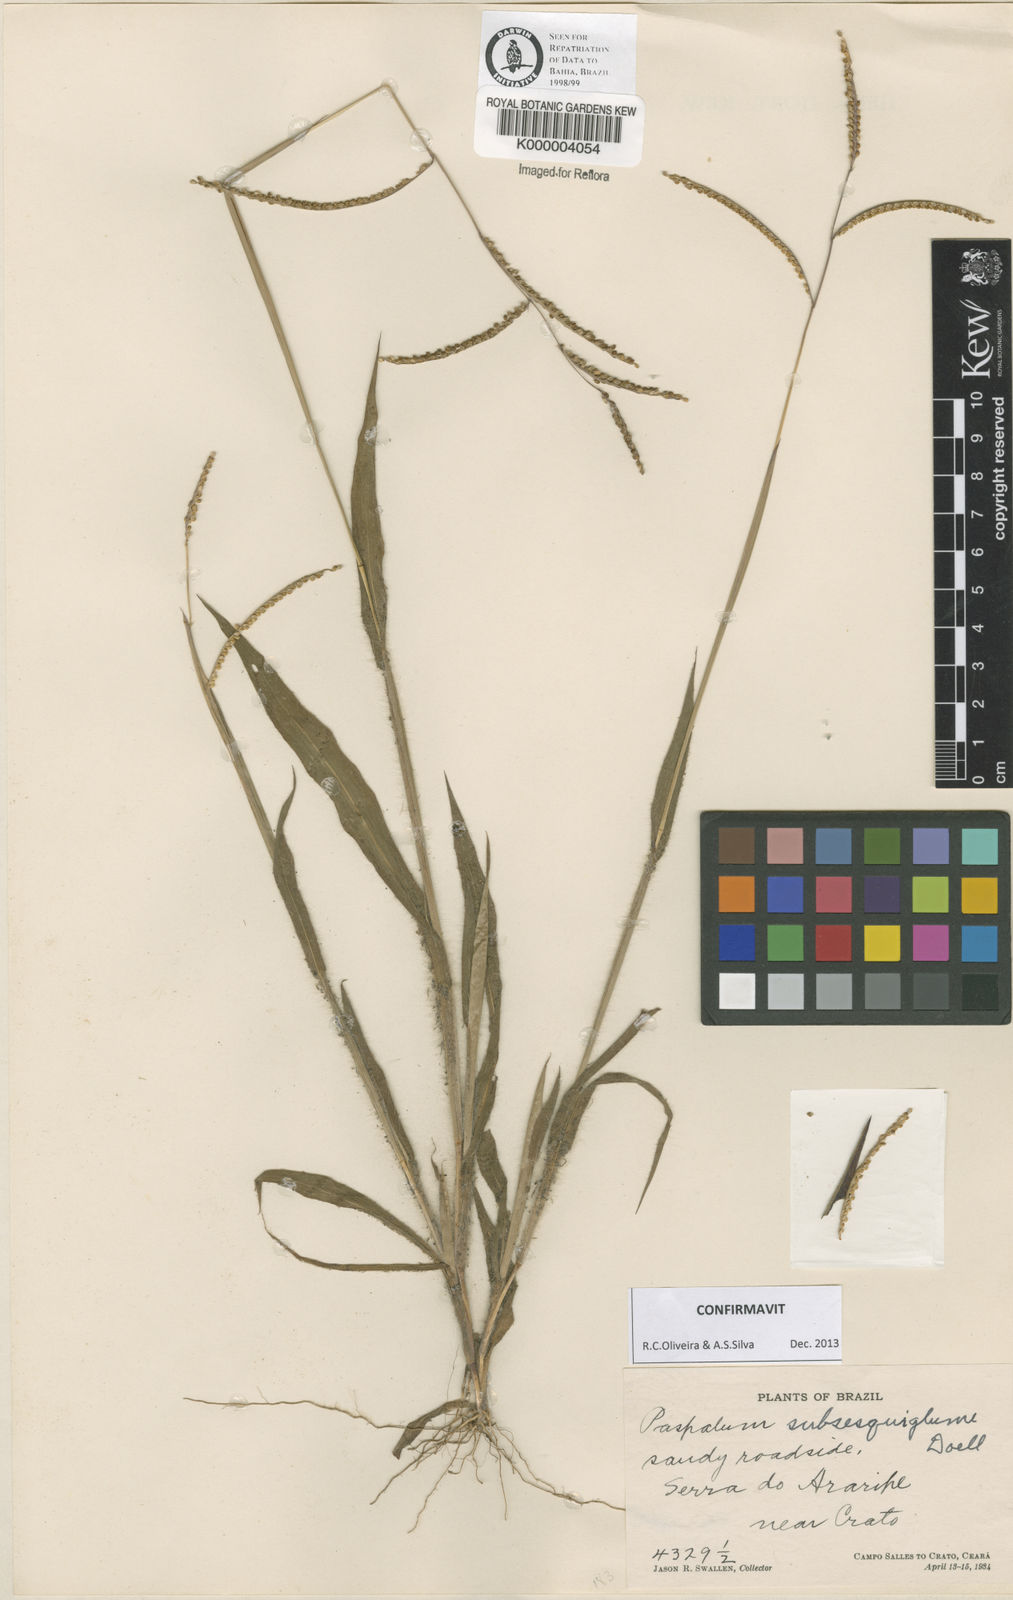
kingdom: Plantae
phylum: Tracheophyta
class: Liliopsida
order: Poales
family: Poaceae
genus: Paspalum
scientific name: Paspalum
